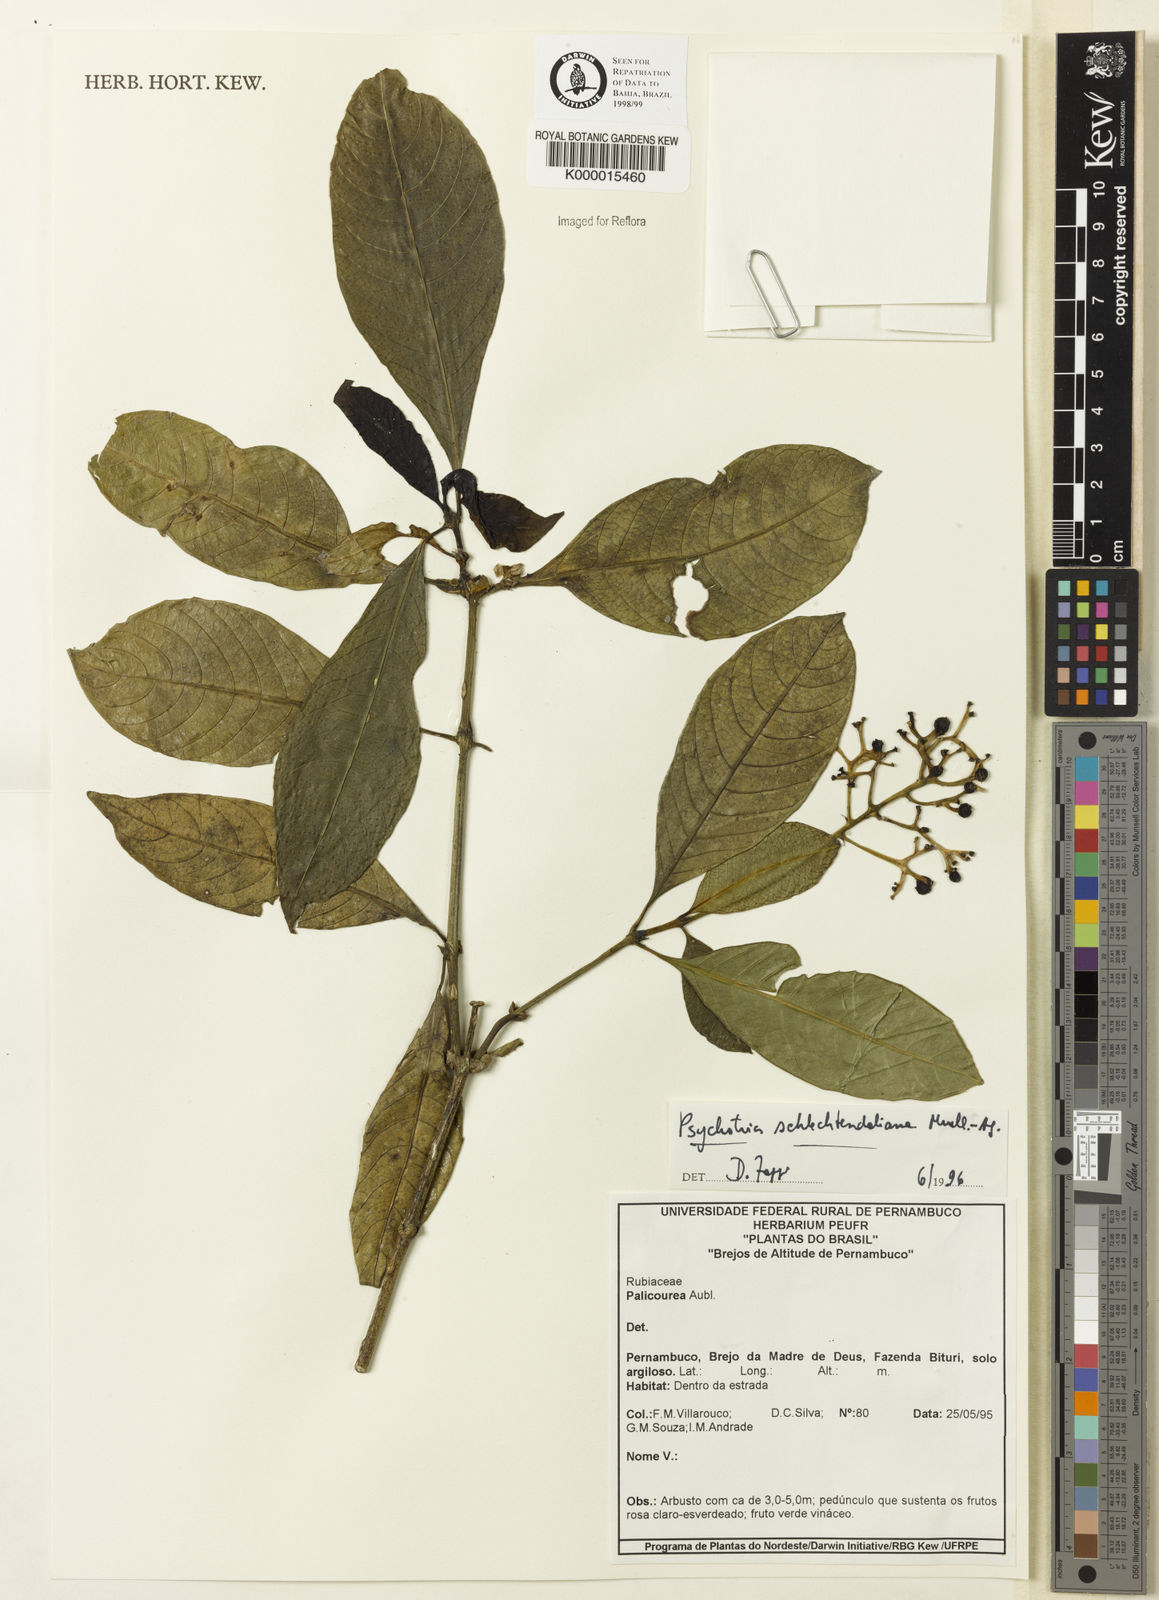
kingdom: Plantae
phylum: Tracheophyta
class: Magnoliopsida
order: Gentianales
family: Rubiaceae
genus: Palicourea
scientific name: Palicourea divaricata
